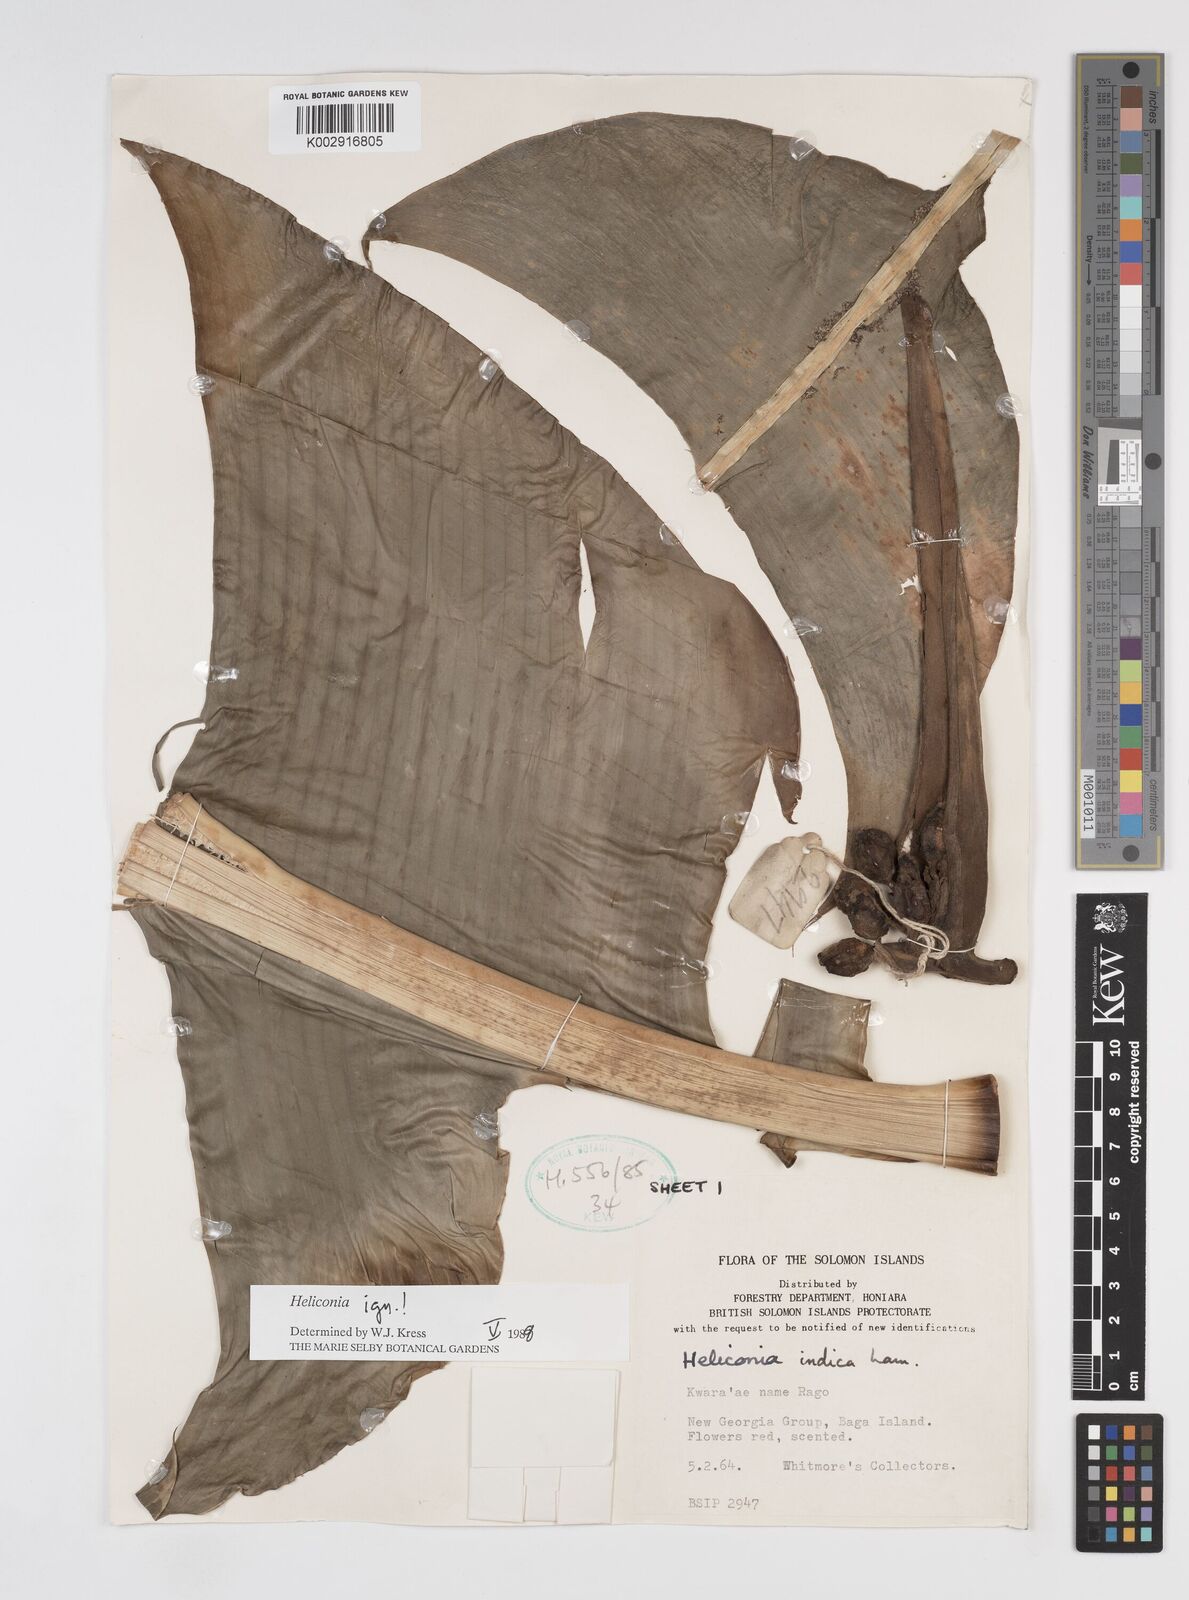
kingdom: Plantae
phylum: Tracheophyta
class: Liliopsida
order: Zingiberales
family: Heliconiaceae
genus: Heliconia
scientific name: Heliconia
